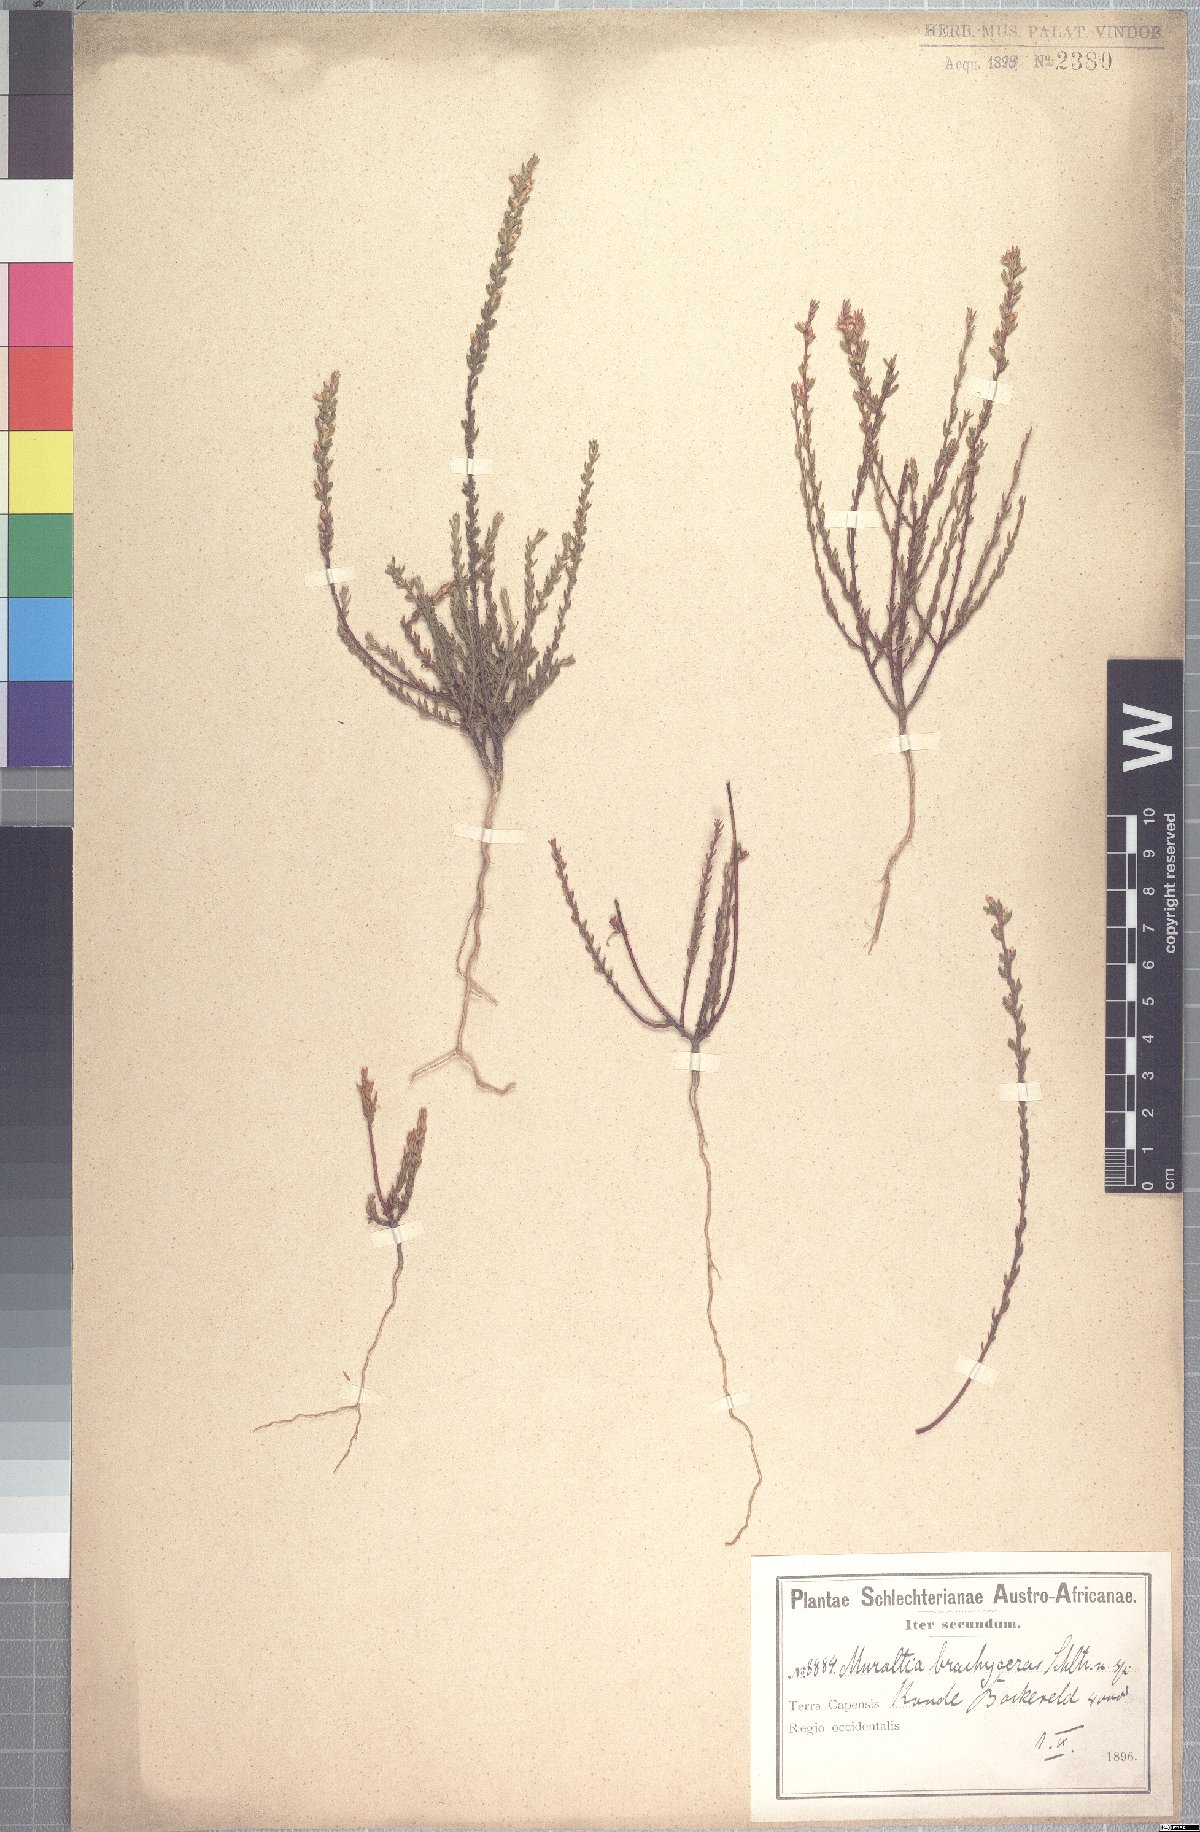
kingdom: Plantae
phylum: Tracheophyta
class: Magnoliopsida
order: Fabales
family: Polygalaceae
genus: Muraltia
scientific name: Muraltia brachyceras
